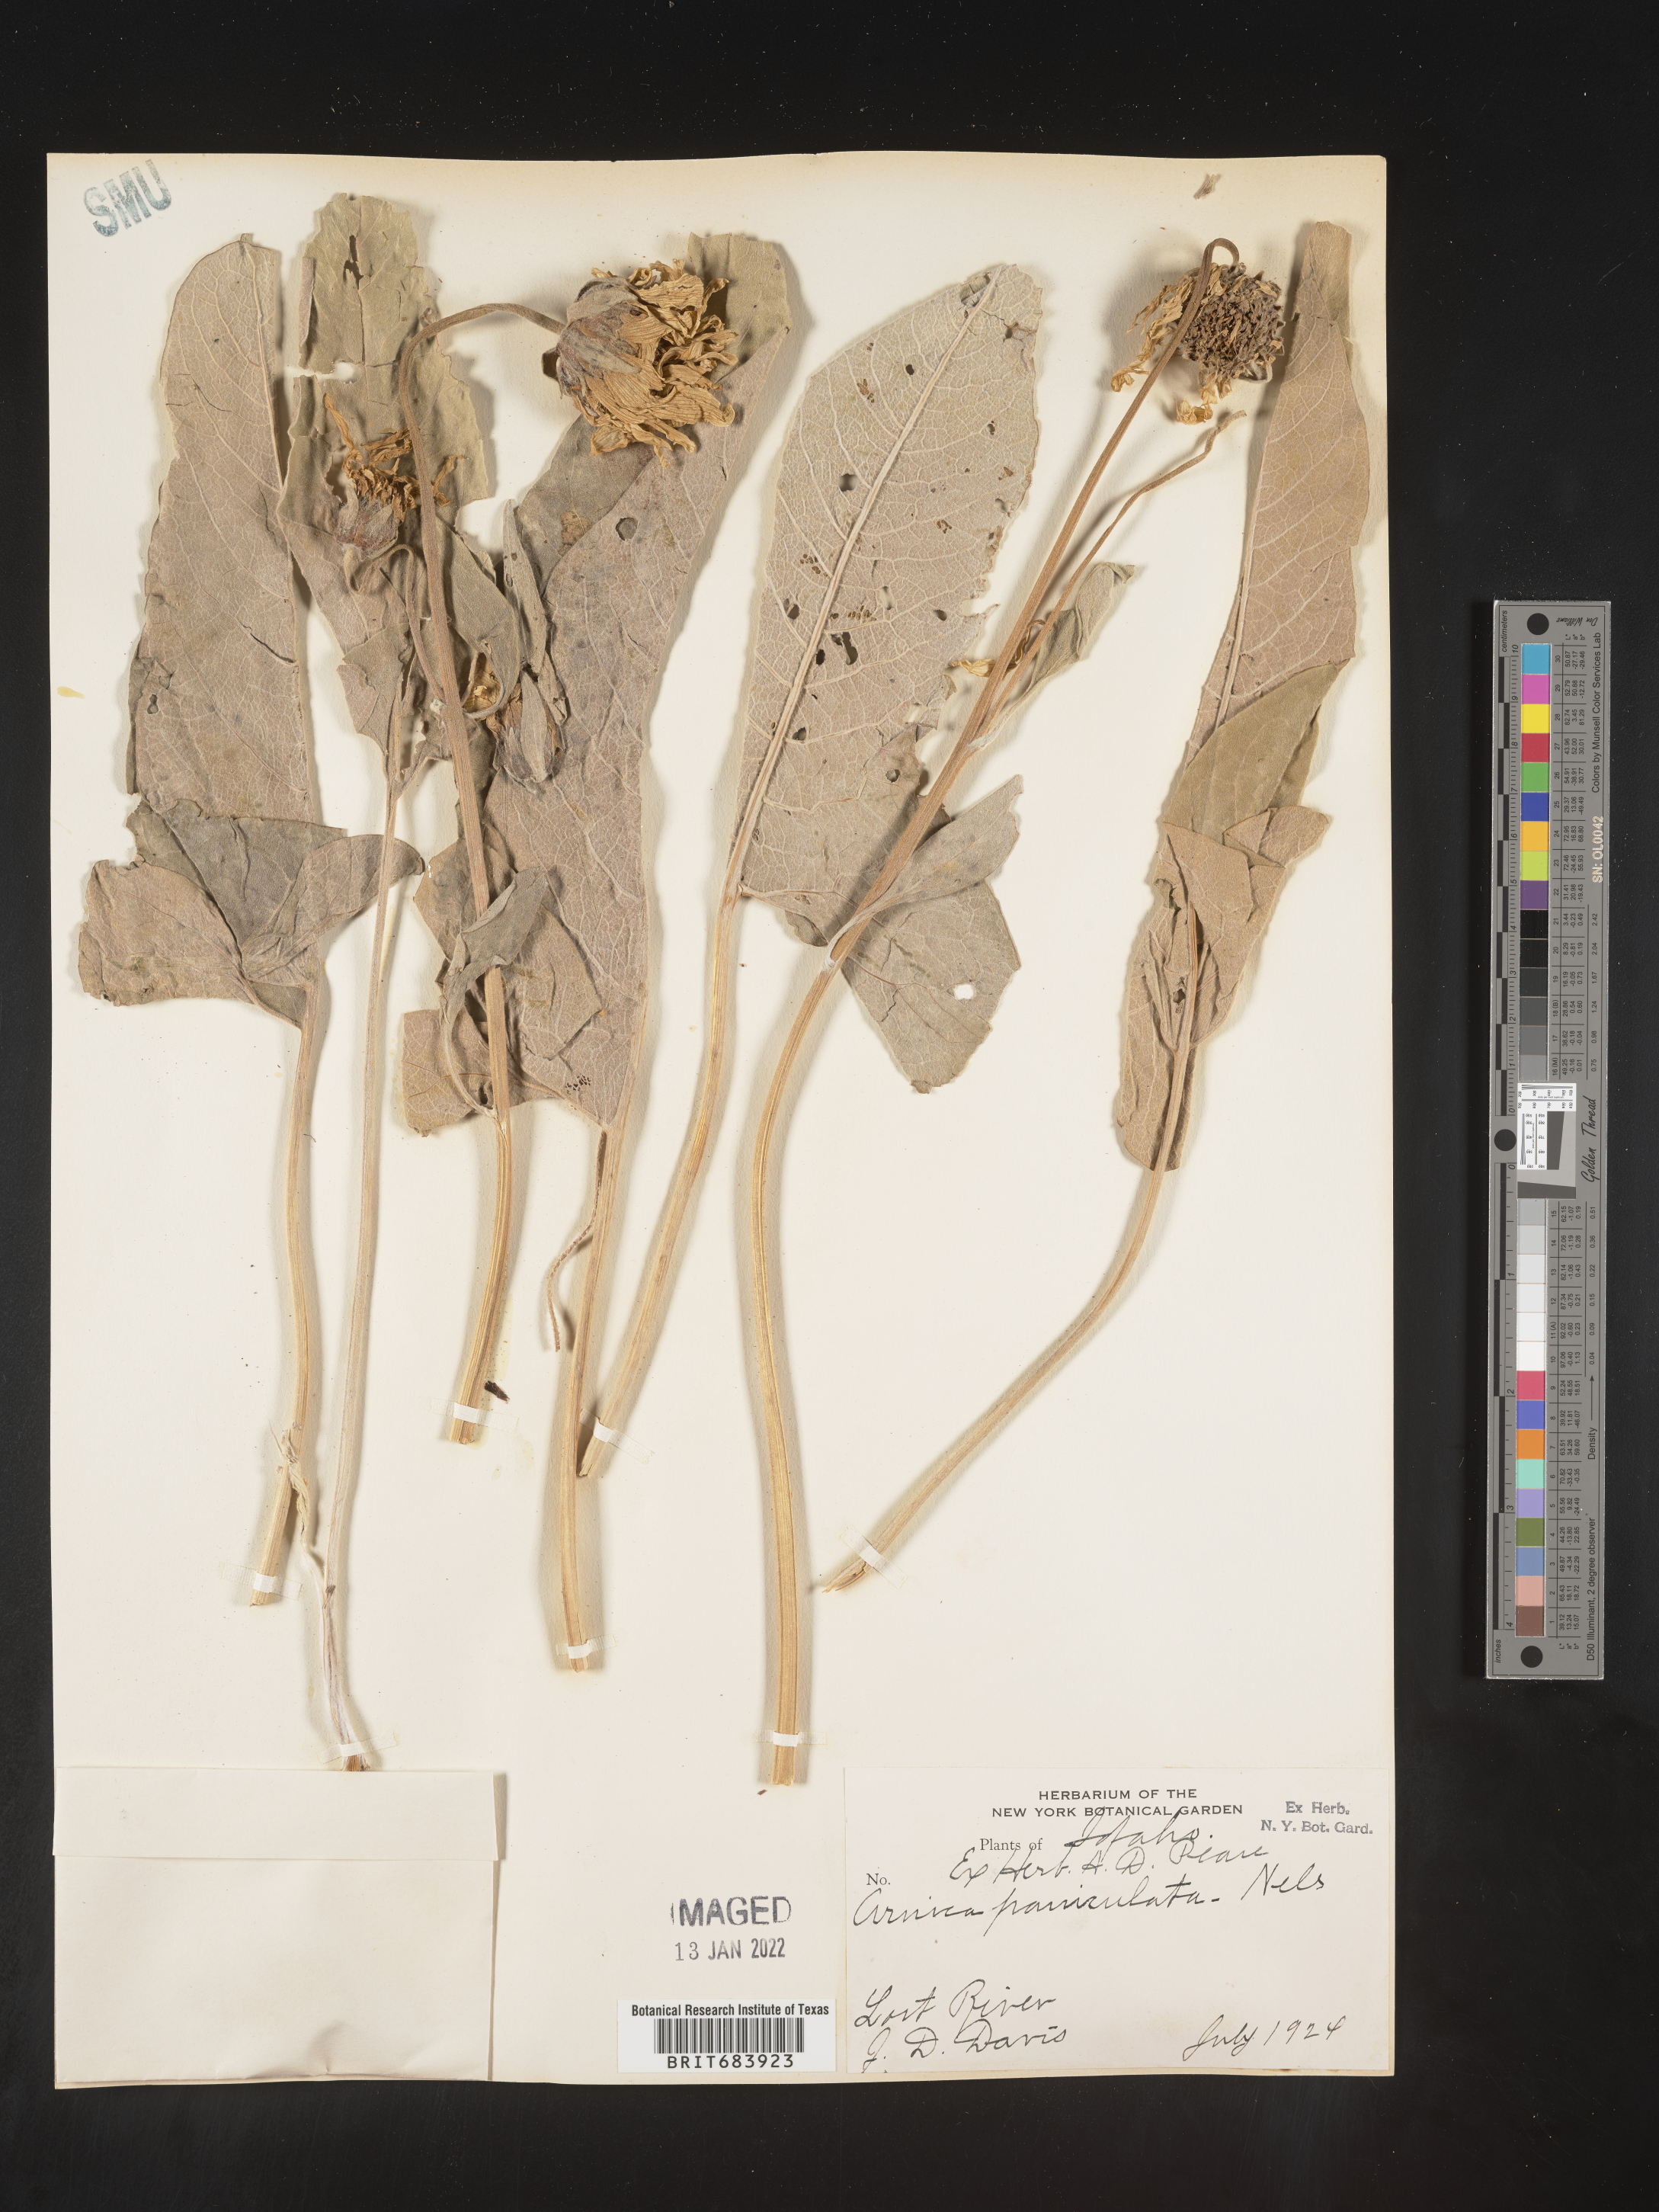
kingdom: Plantae
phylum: Tracheophyta
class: Magnoliopsida
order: Asterales
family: Asteraceae
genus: Balsamorhiza
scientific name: Balsamorhiza serrata
